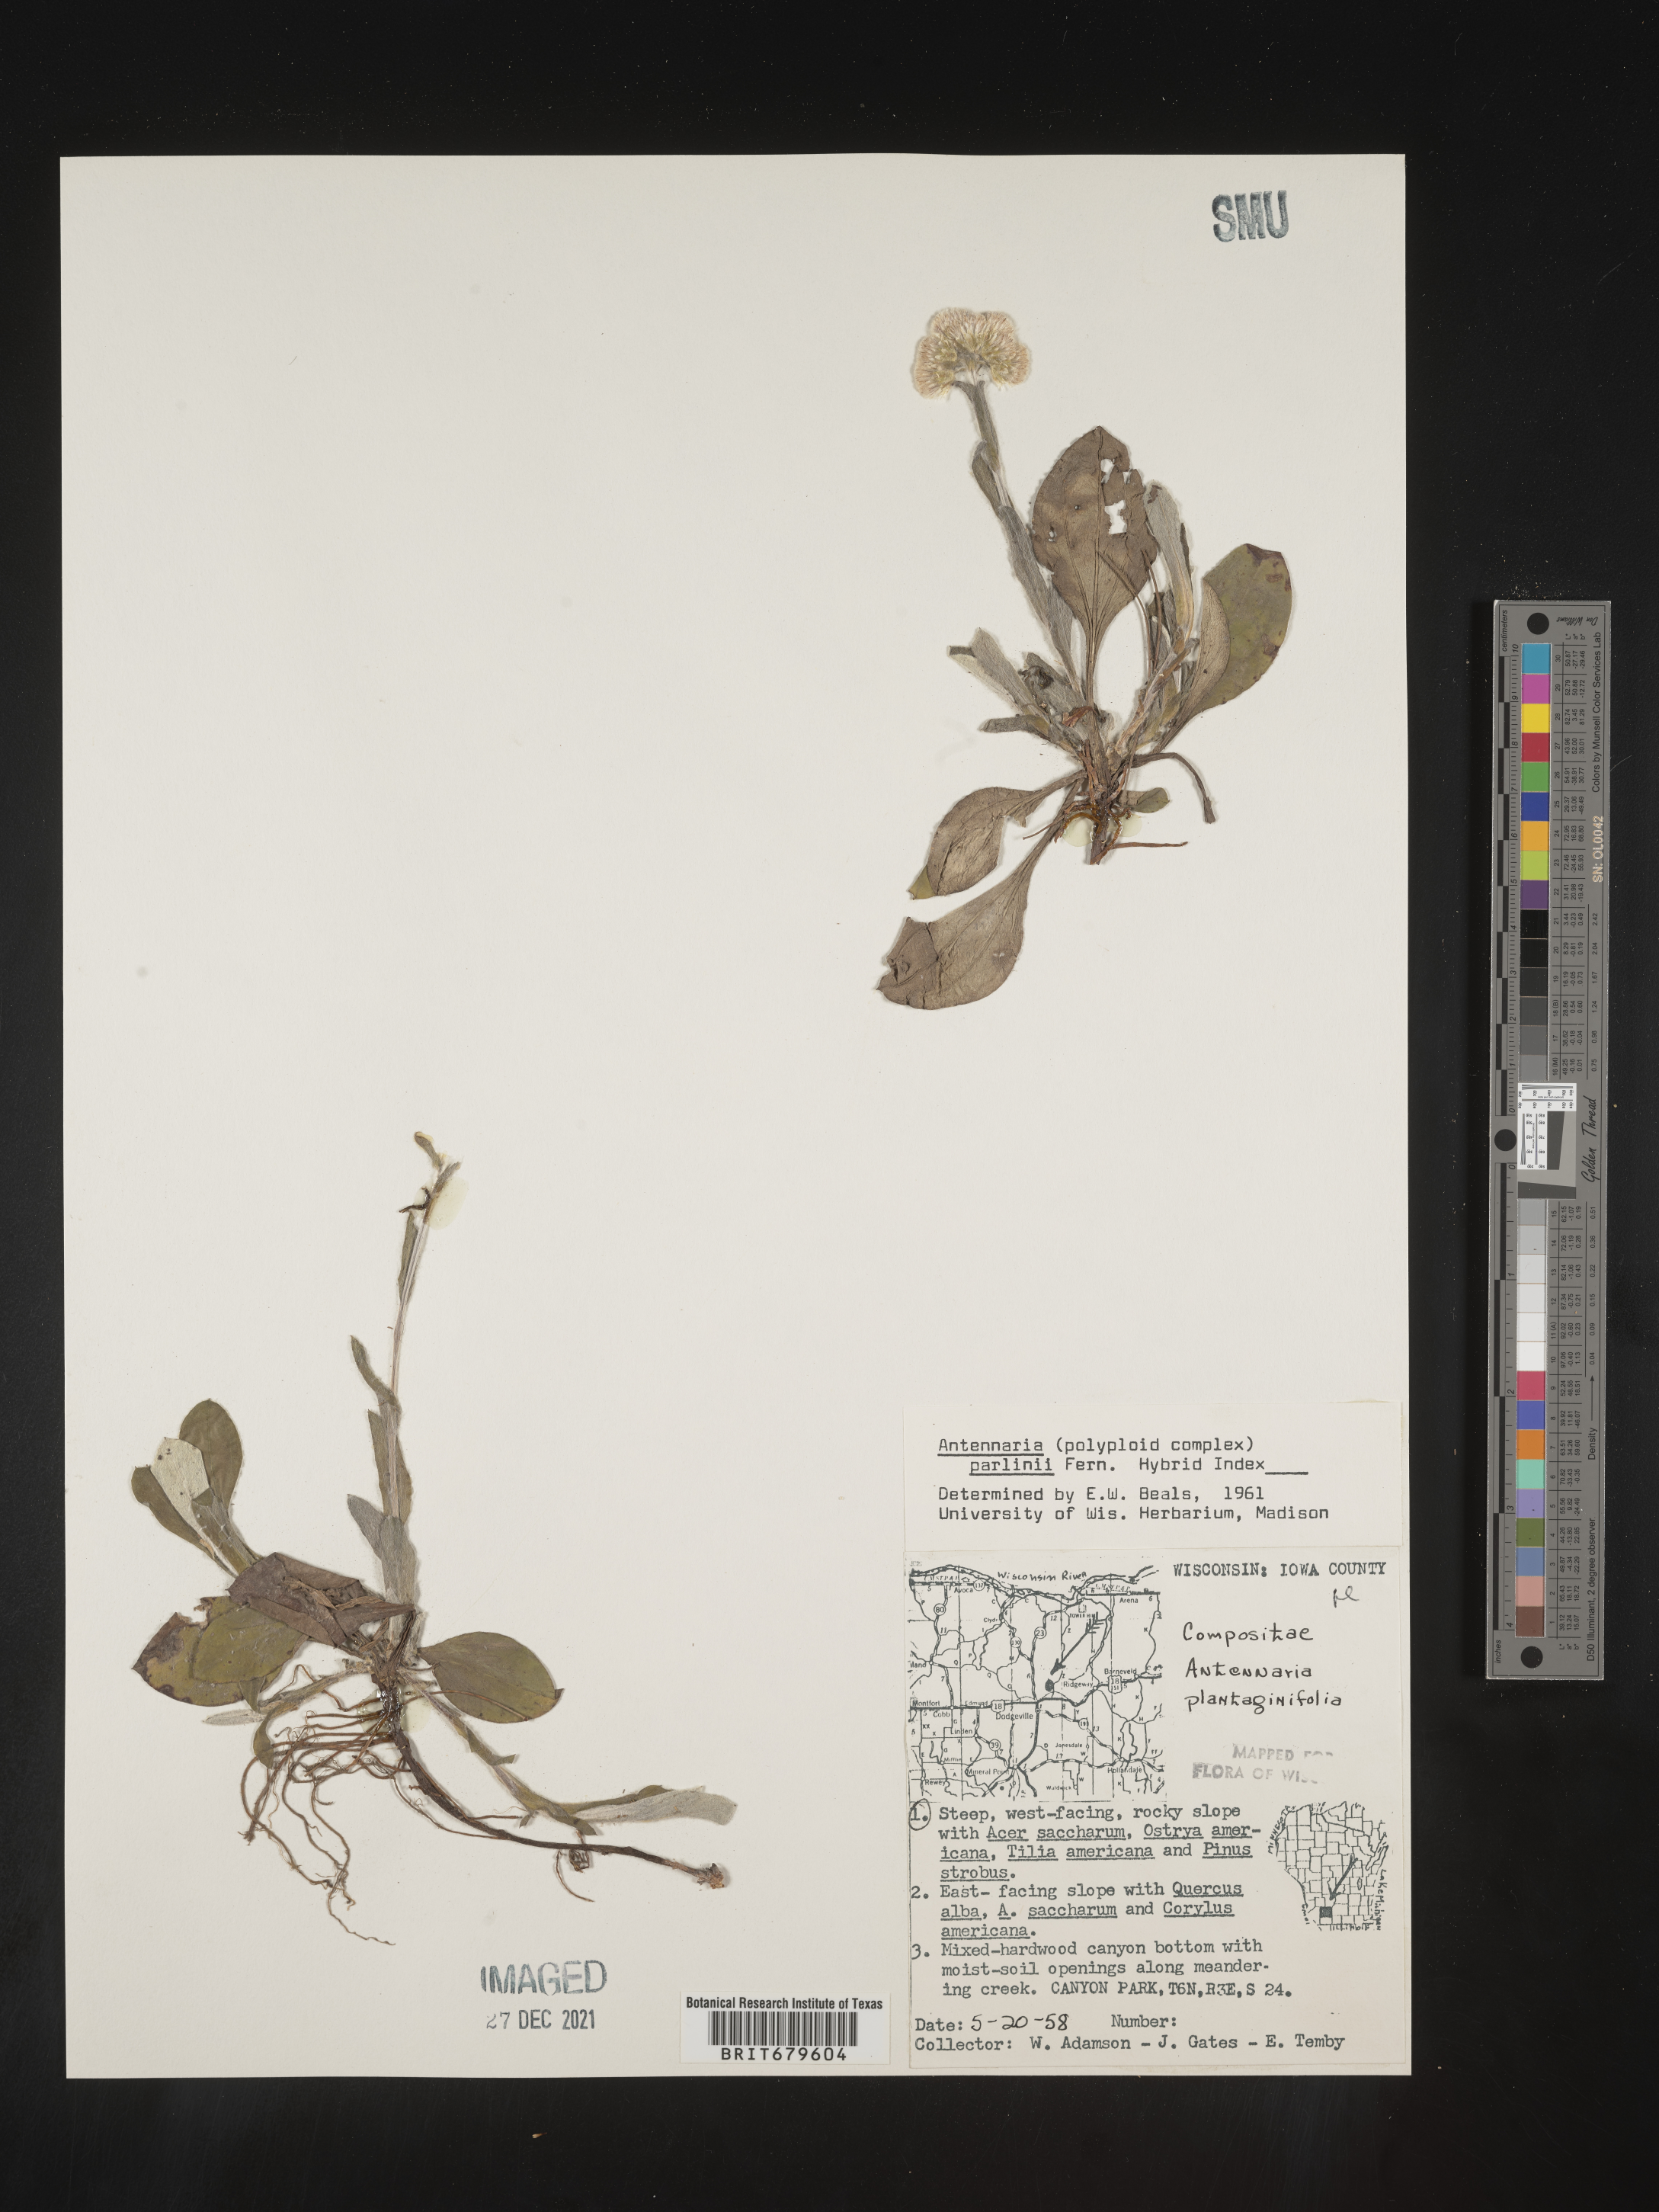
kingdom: Plantae
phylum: Tracheophyta
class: Magnoliopsida
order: Asterales
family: Asteraceae
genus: Antennaria
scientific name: Antennaria parlinii
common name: Parlin's pussytoes
